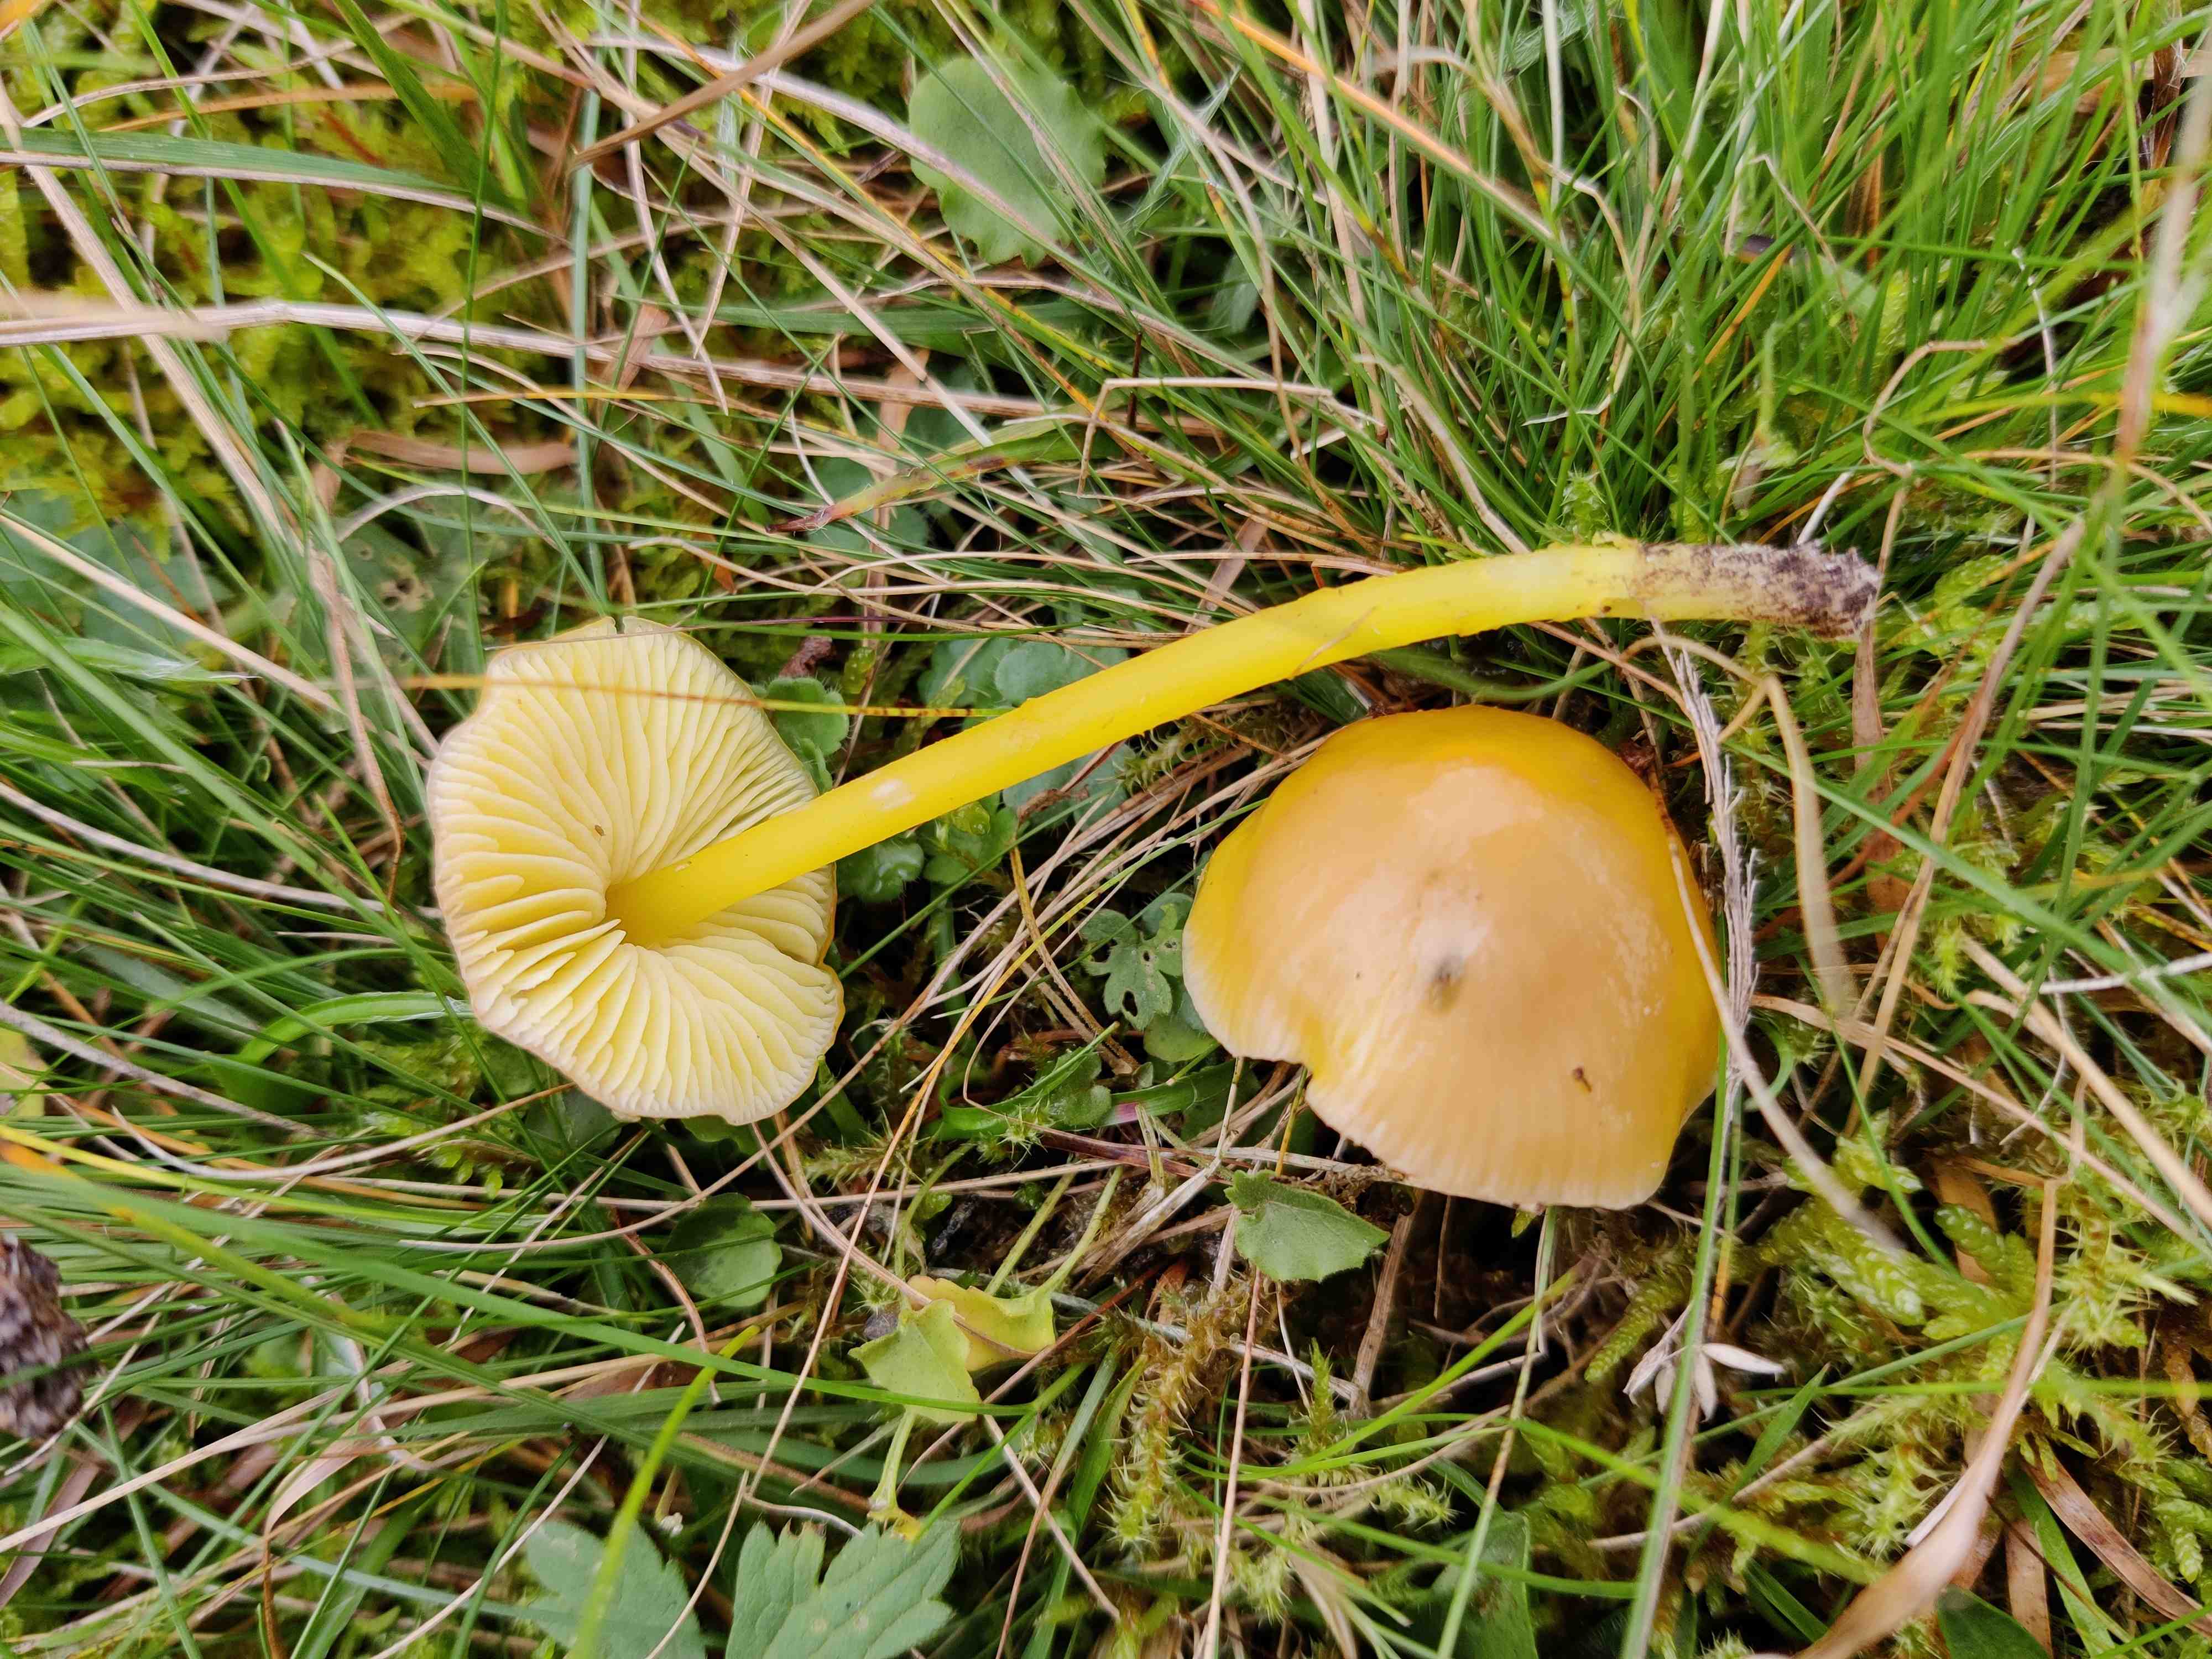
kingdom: Fungi
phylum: Basidiomycota
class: Agaricomycetes
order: Agaricales
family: Hygrophoraceae
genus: Hygrocybe
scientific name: Hygrocybe ceracea
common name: voksgul vokshat
